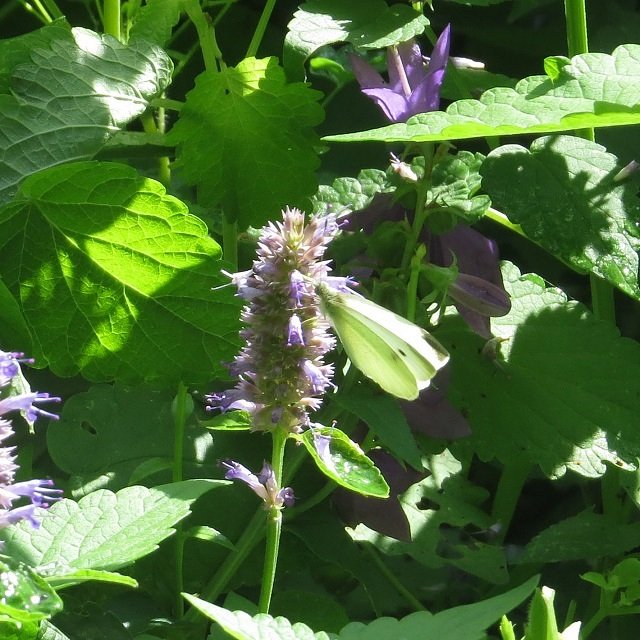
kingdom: Animalia
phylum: Arthropoda
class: Insecta
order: Lepidoptera
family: Pieridae
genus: Pieris
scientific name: Pieris rapae
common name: Cabbage White
